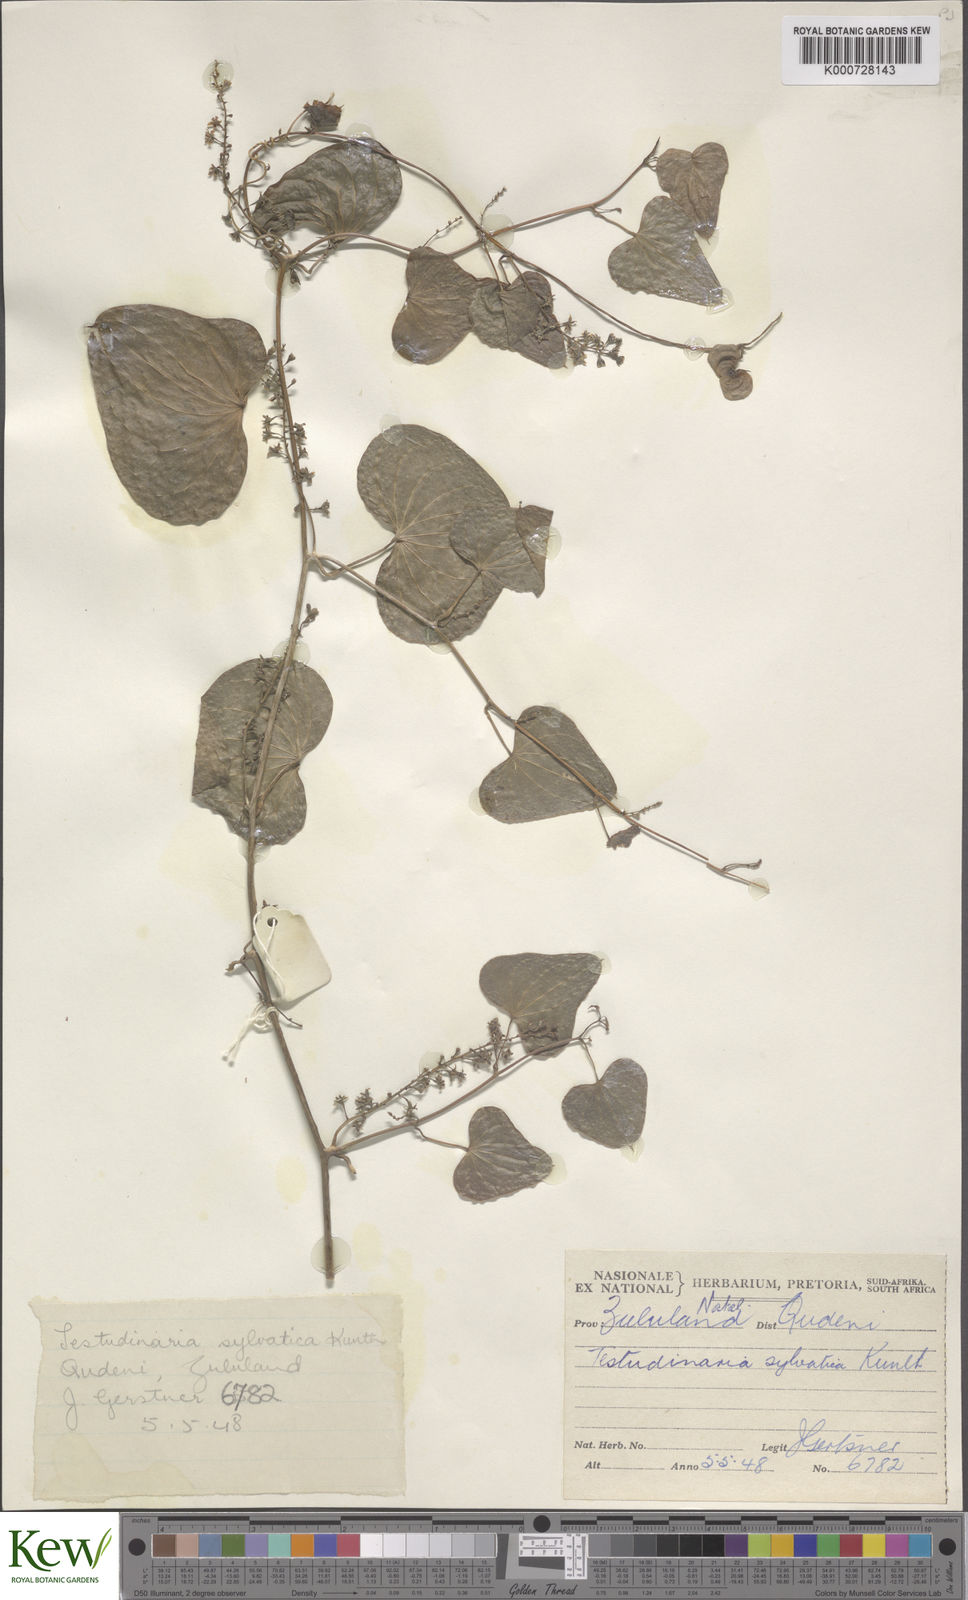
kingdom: Plantae
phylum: Tracheophyta
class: Liliopsida
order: Dioscoreales
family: Dioscoreaceae
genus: Dioscorea
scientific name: Dioscorea sylvatica
